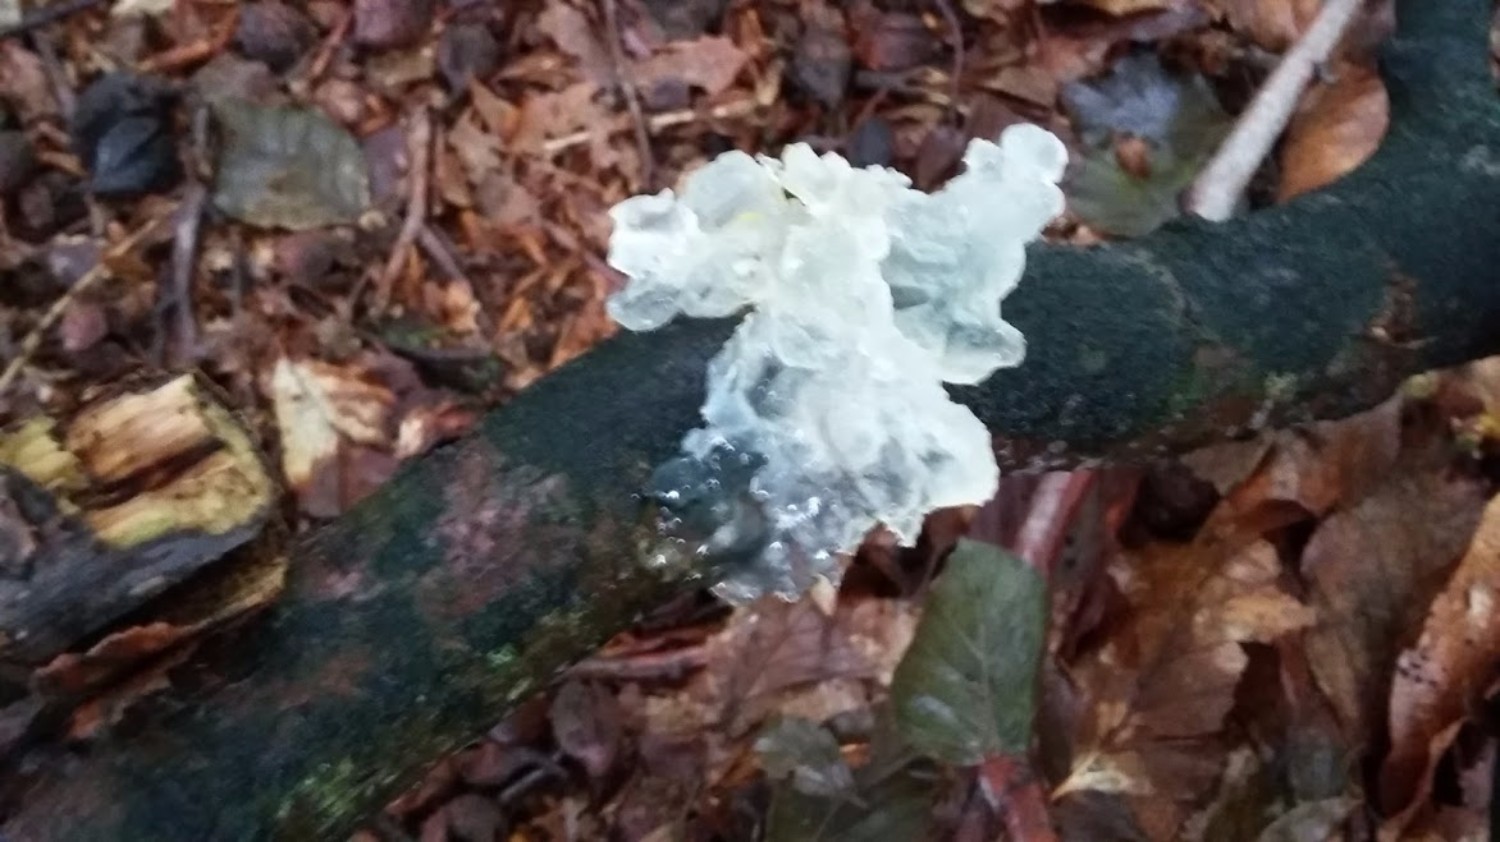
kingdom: Fungi
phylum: Basidiomycota
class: Tremellomycetes
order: Tremellales
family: Tremellaceae
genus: Tremella
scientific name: Tremella mesenterica
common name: gul bævresvamp
